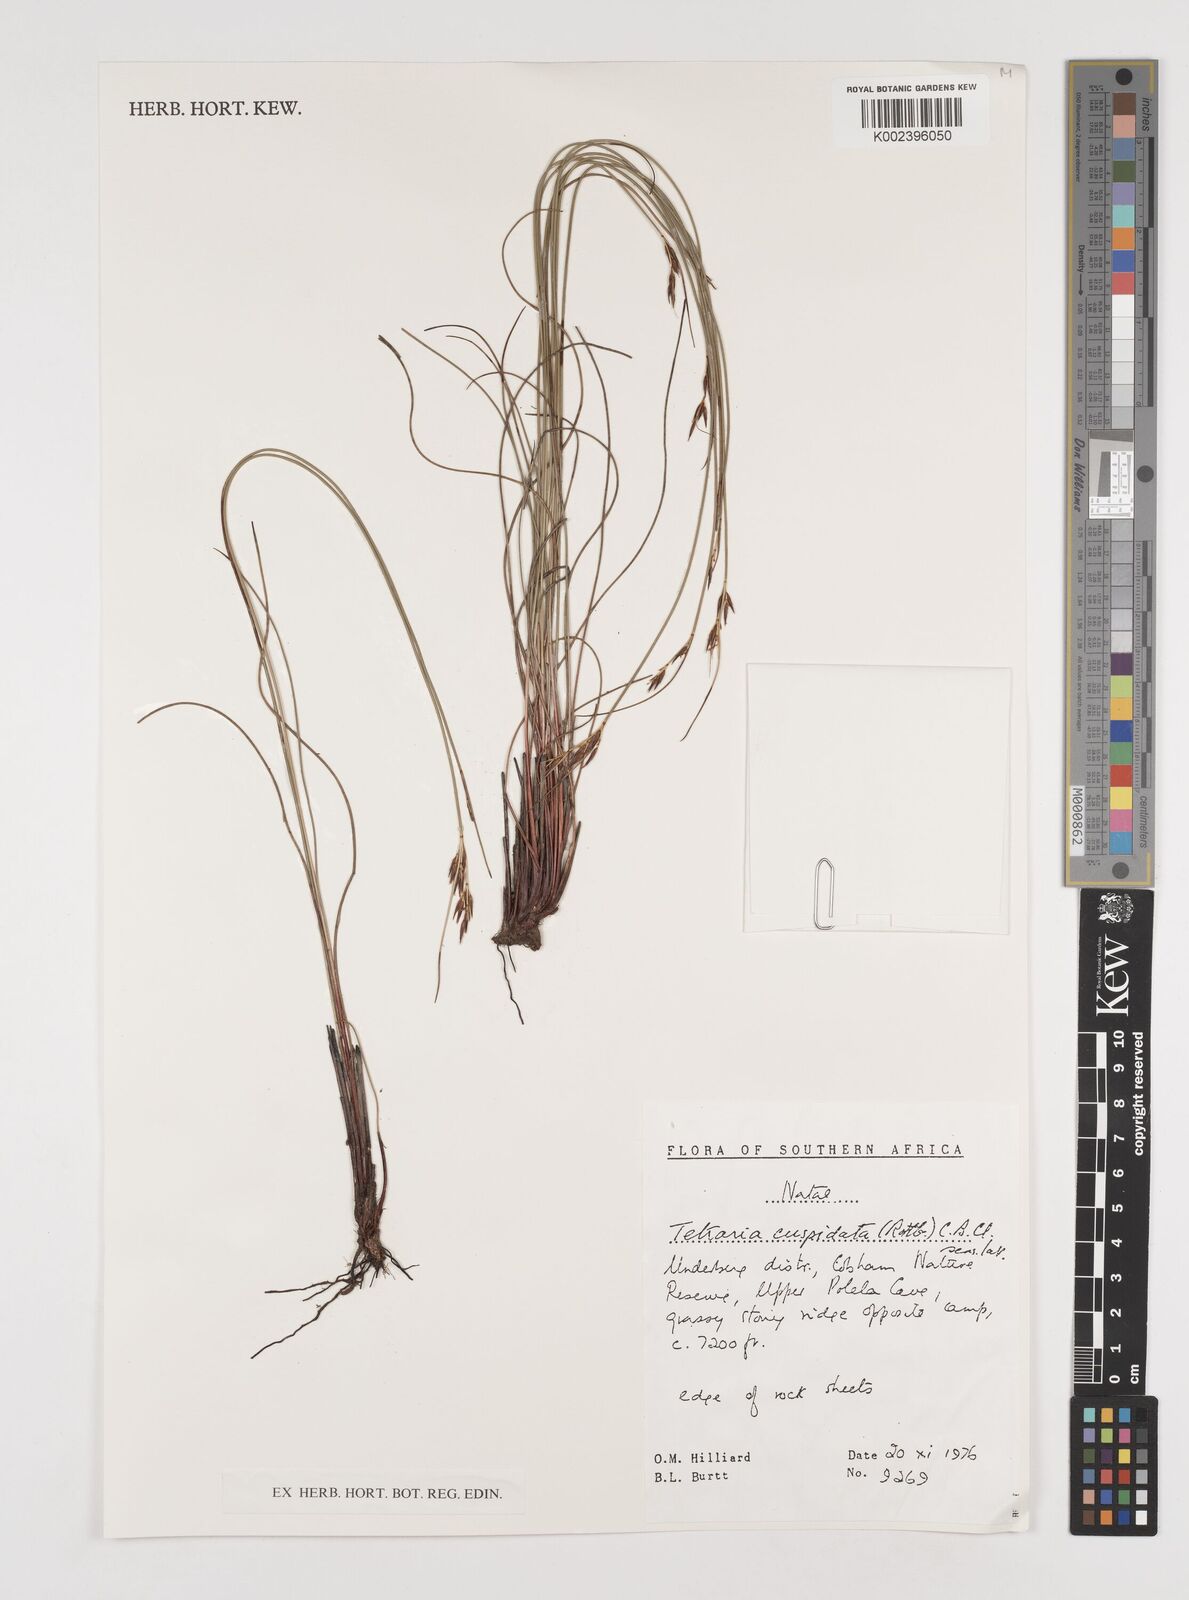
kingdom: Plantae
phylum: Tracheophyta
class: Liliopsida
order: Poales
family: Cyperaceae
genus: Schoenus
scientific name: Schoenus cuspidatus
